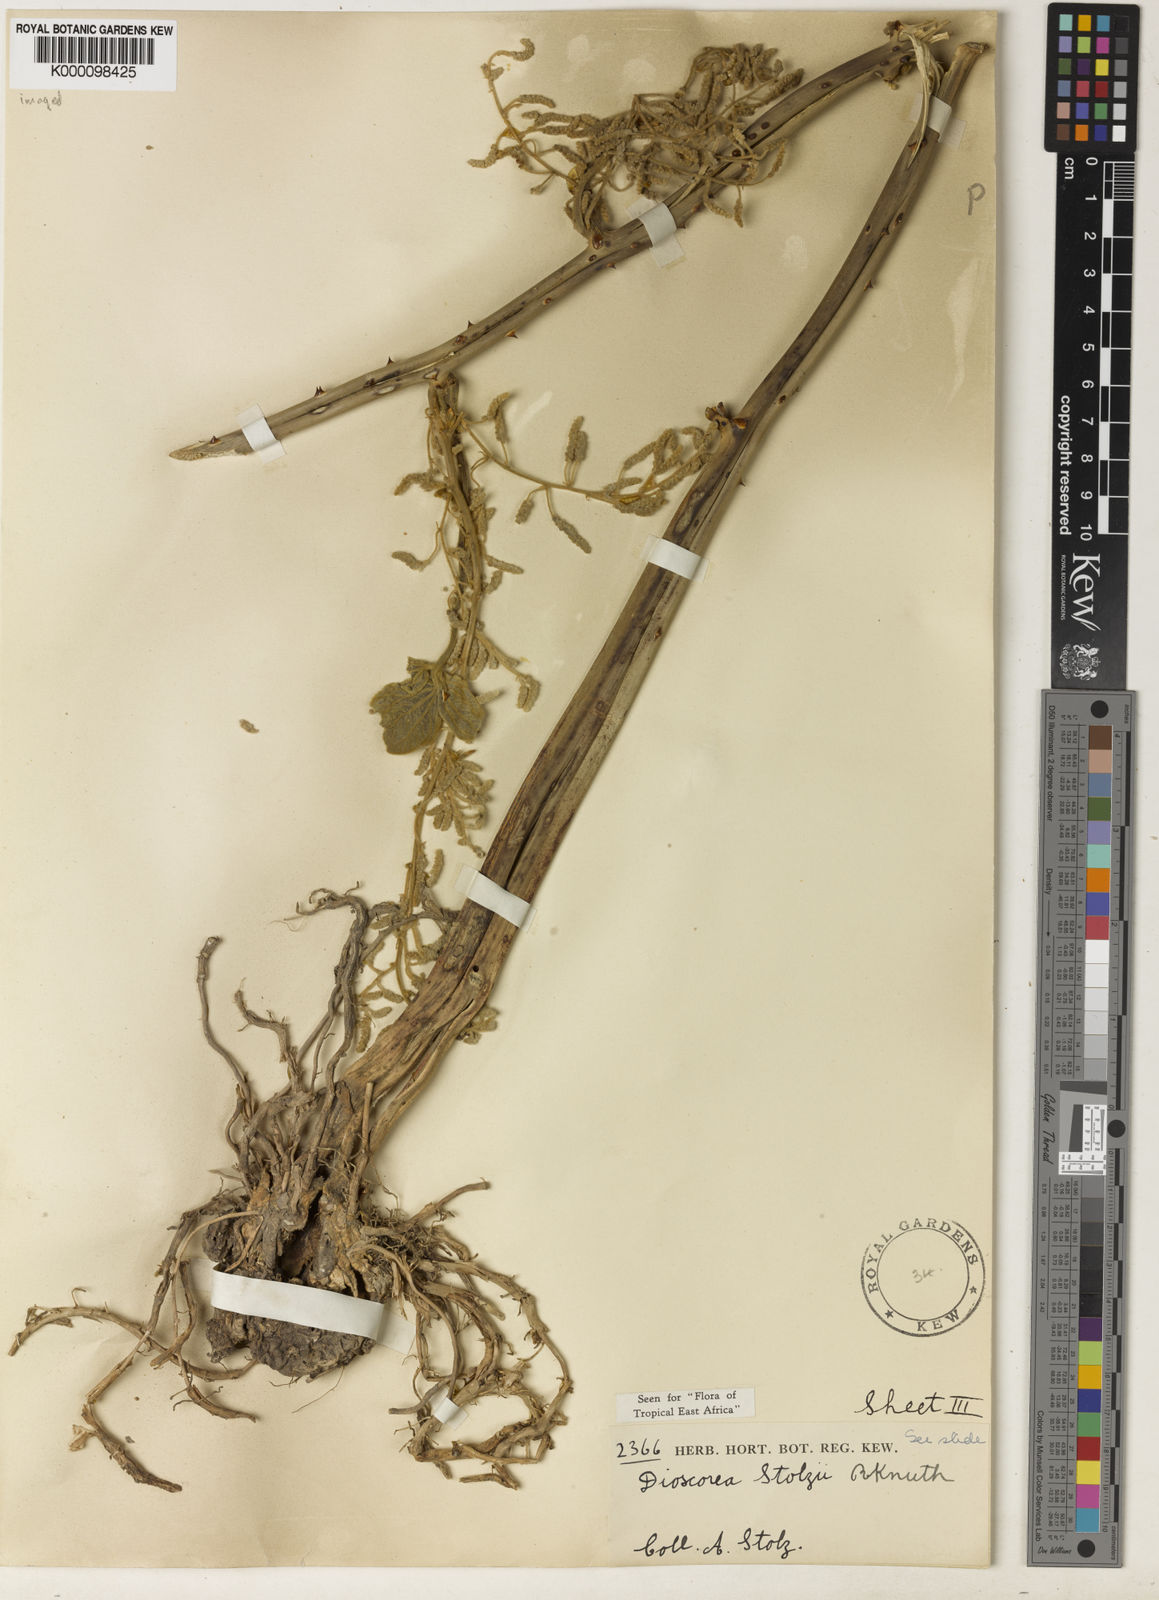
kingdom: Plantae
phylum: Tracheophyta
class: Liliopsida
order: Dioscoreales
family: Dioscoreaceae
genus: Dioscorea
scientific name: Dioscorea cochleariapiculata
